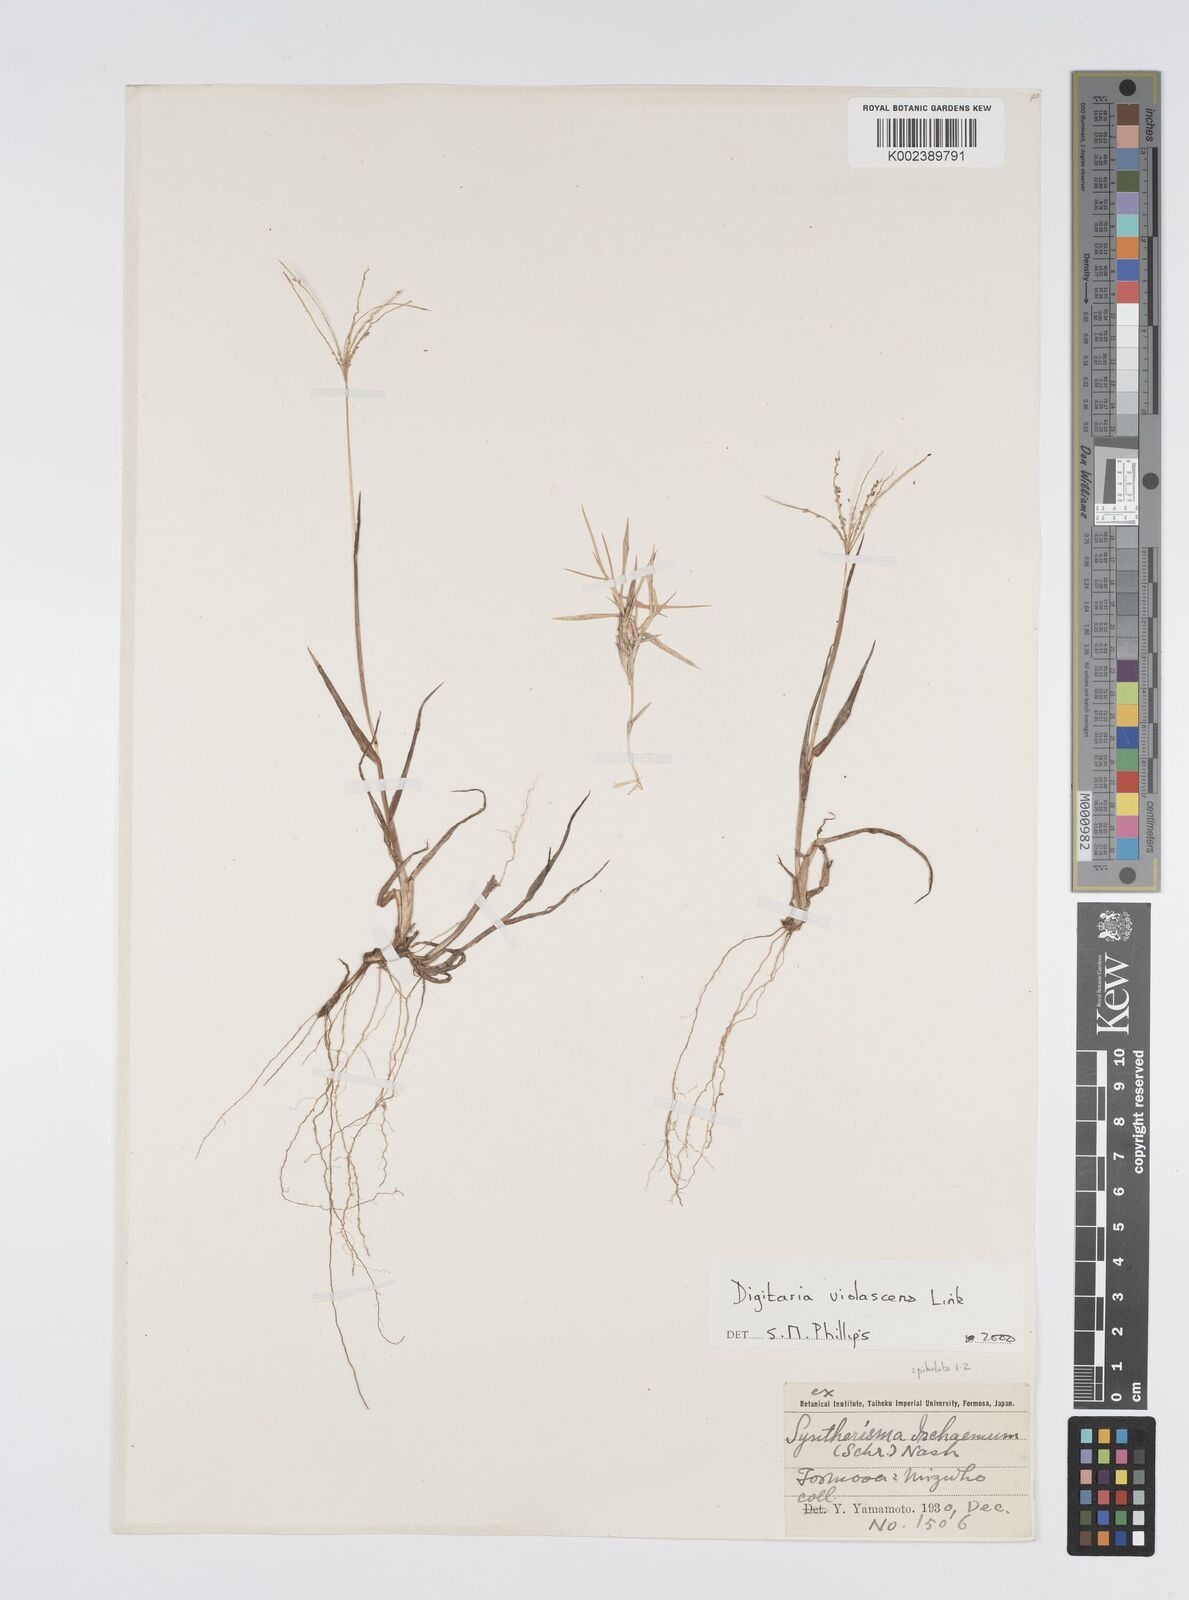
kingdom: Plantae
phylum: Tracheophyta
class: Liliopsida
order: Poales
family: Poaceae
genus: Digitaria
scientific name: Digitaria violascens
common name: Violet crabgrass
